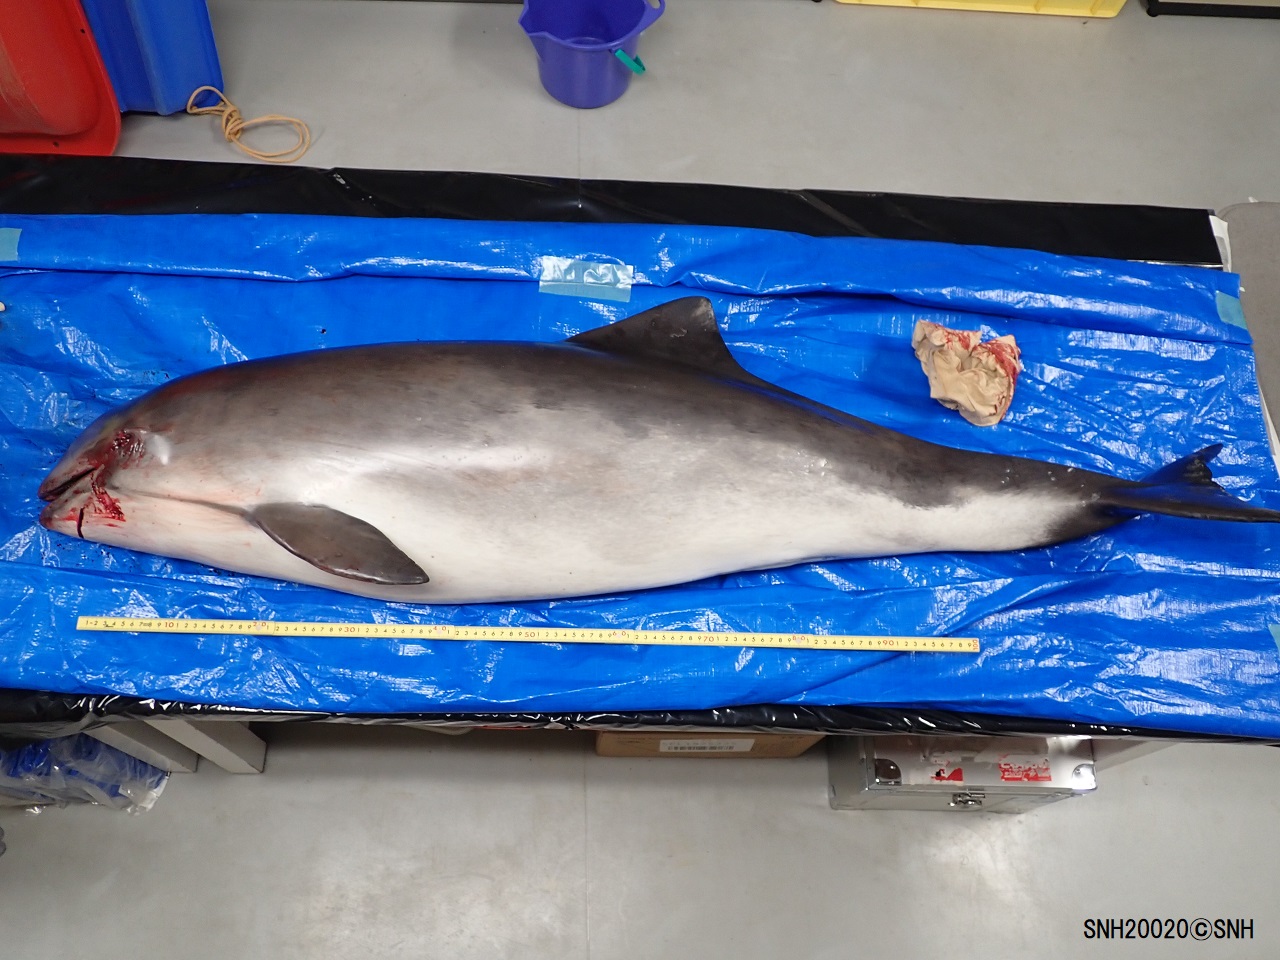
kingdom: Animalia
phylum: Chordata
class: Mammalia
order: Cetacea
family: Phocoenidae
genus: Phocoena
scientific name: Phocoena phocoena
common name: Harbour porpoise
